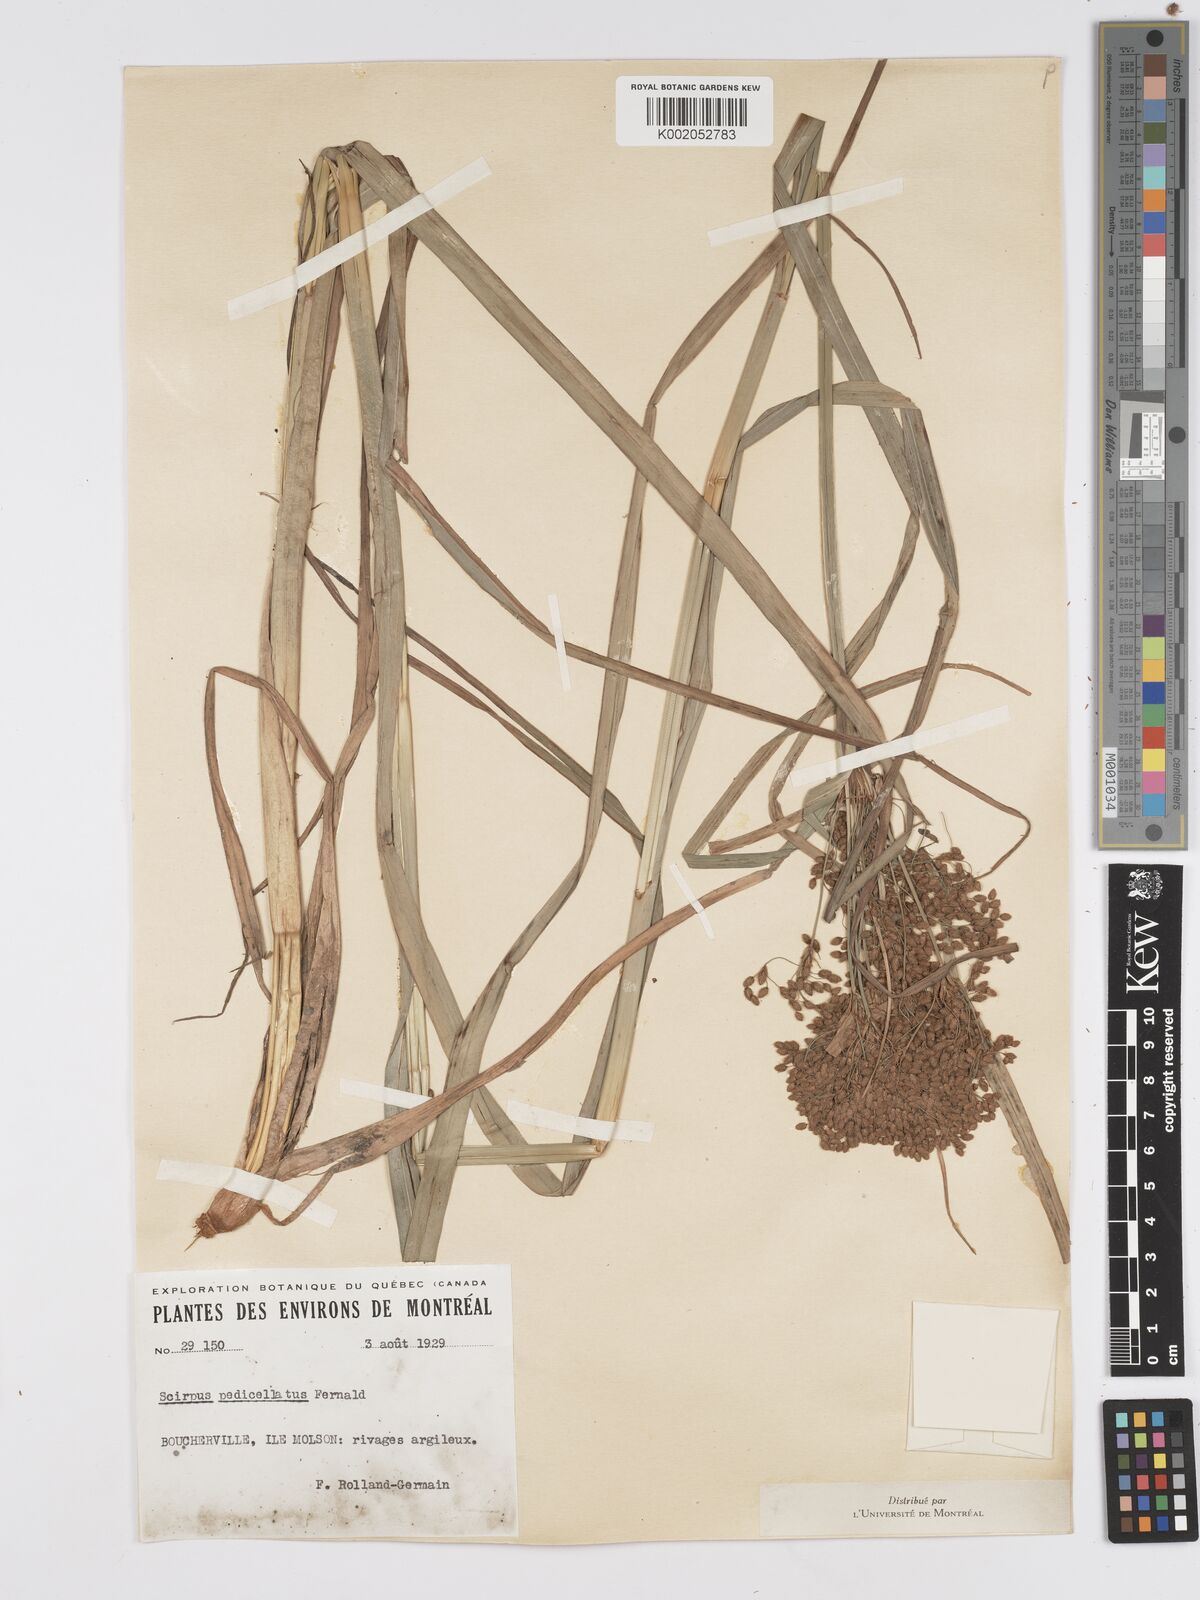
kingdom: Plantae
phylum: Tracheophyta
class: Liliopsida
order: Poales
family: Cyperaceae
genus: Scirpus
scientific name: Scirpus cyperinus
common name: Black-sheathed bulrush
